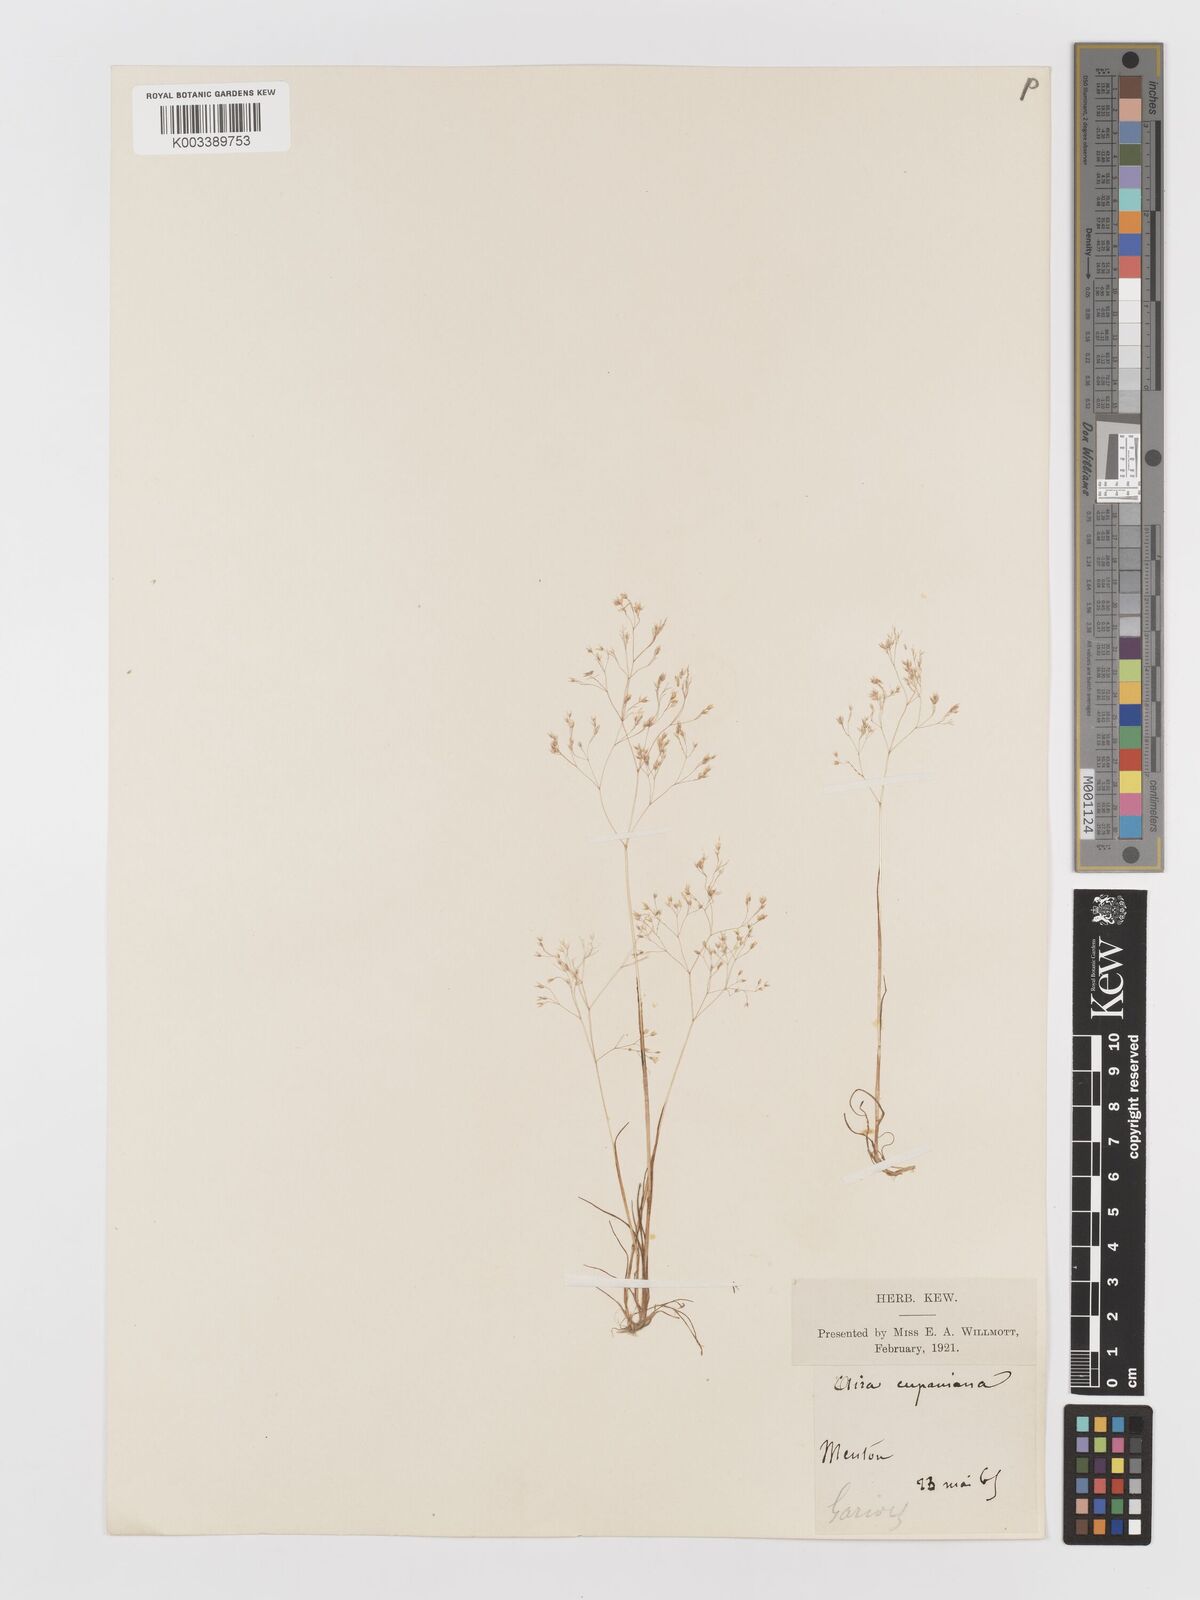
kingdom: Plantae
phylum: Tracheophyta
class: Liliopsida
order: Poales
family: Poaceae
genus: Aira
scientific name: Aira cupaniana
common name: Silver hairgrass
